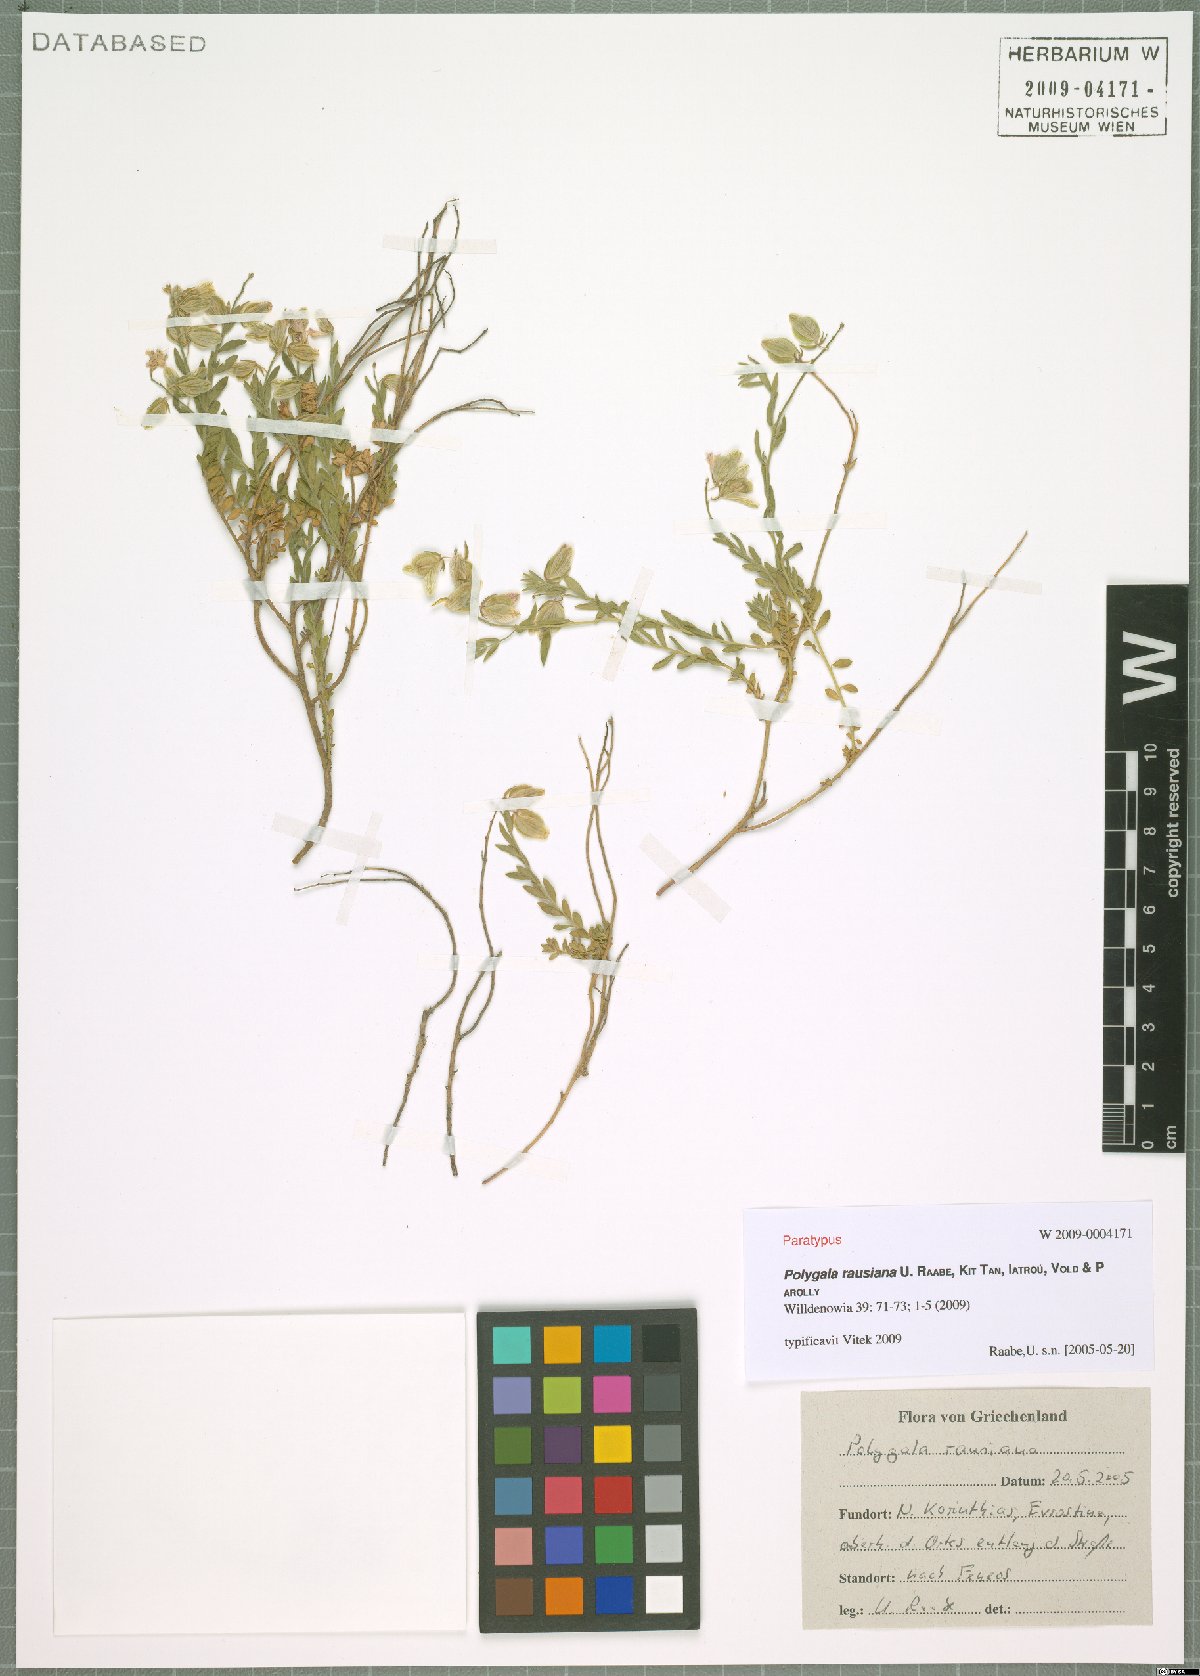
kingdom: Plantae
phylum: Tracheophyta
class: Magnoliopsida
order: Fabales
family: Polygalaceae
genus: Polygala
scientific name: Polygala rausiana
